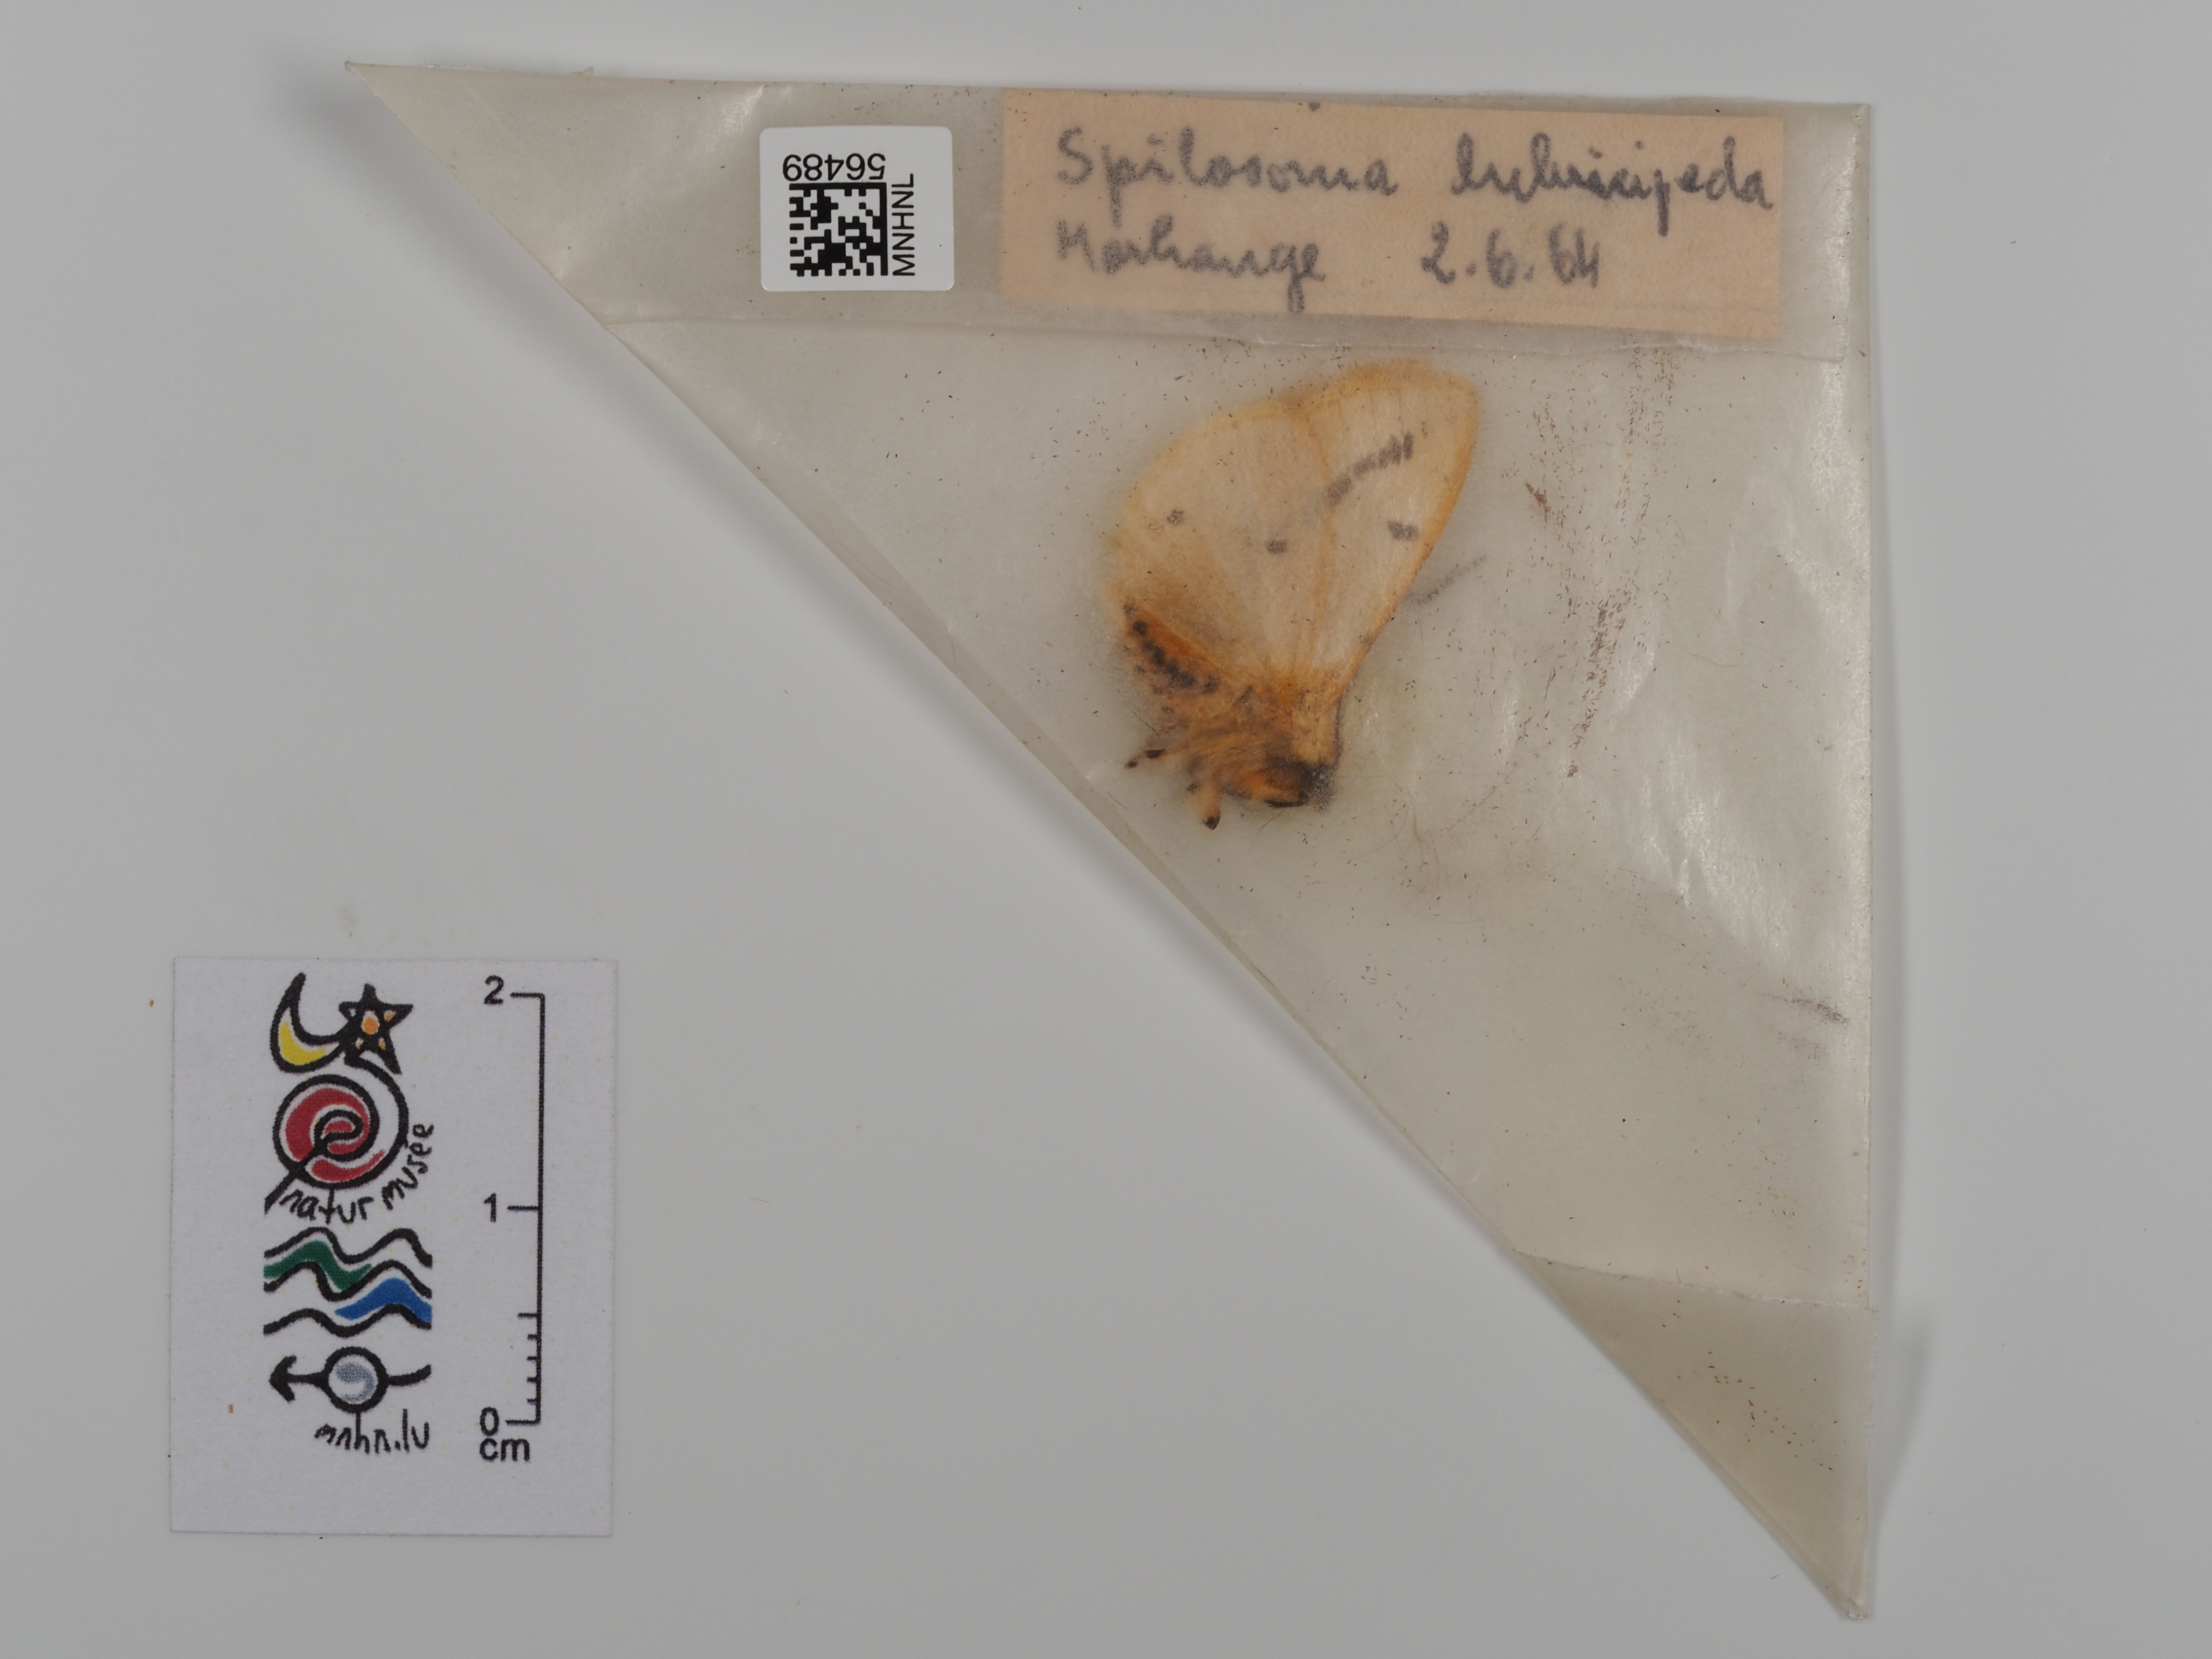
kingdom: Animalia
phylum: Arthropoda
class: Insecta
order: Lepidoptera
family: Erebidae
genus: Spilosoma
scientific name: Spilosoma lubricipeda
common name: White ermine
